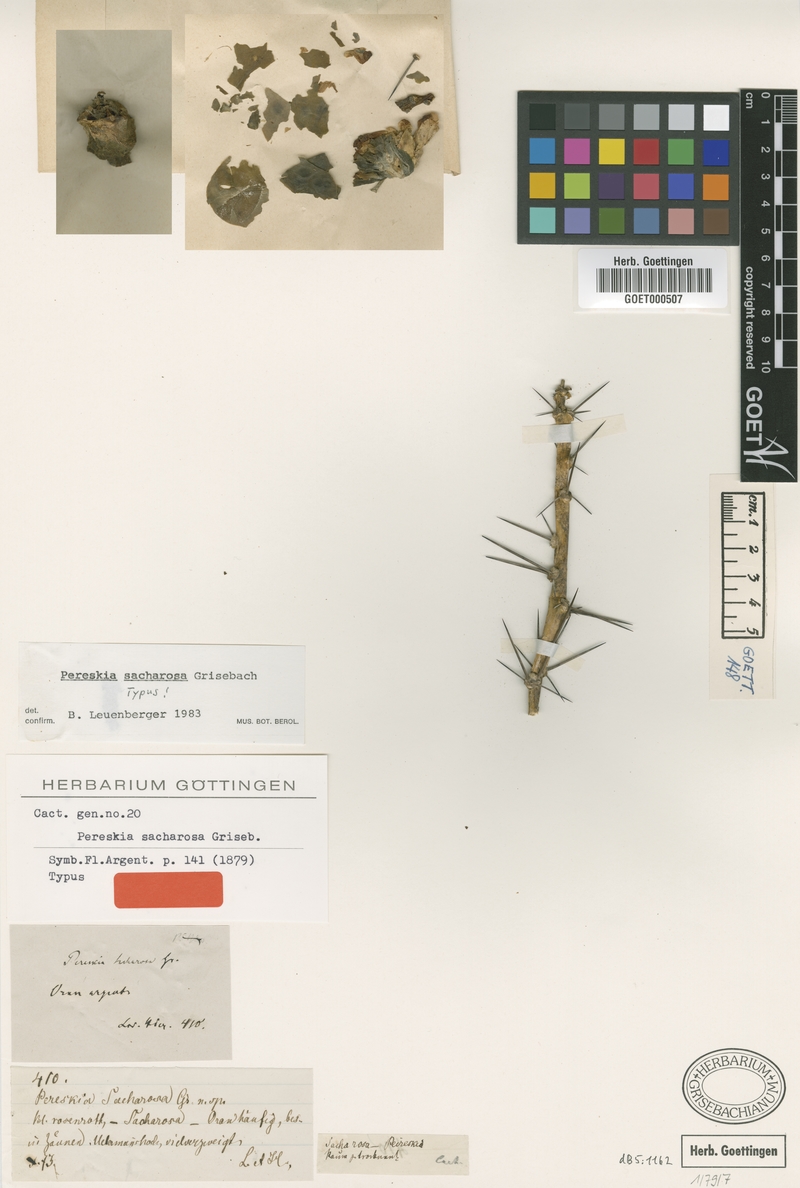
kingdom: Plantae
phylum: Tracheophyta
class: Magnoliopsida
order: Caryophyllales
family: Cactaceae
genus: Pereskia
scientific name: Pereskia sacharosa
